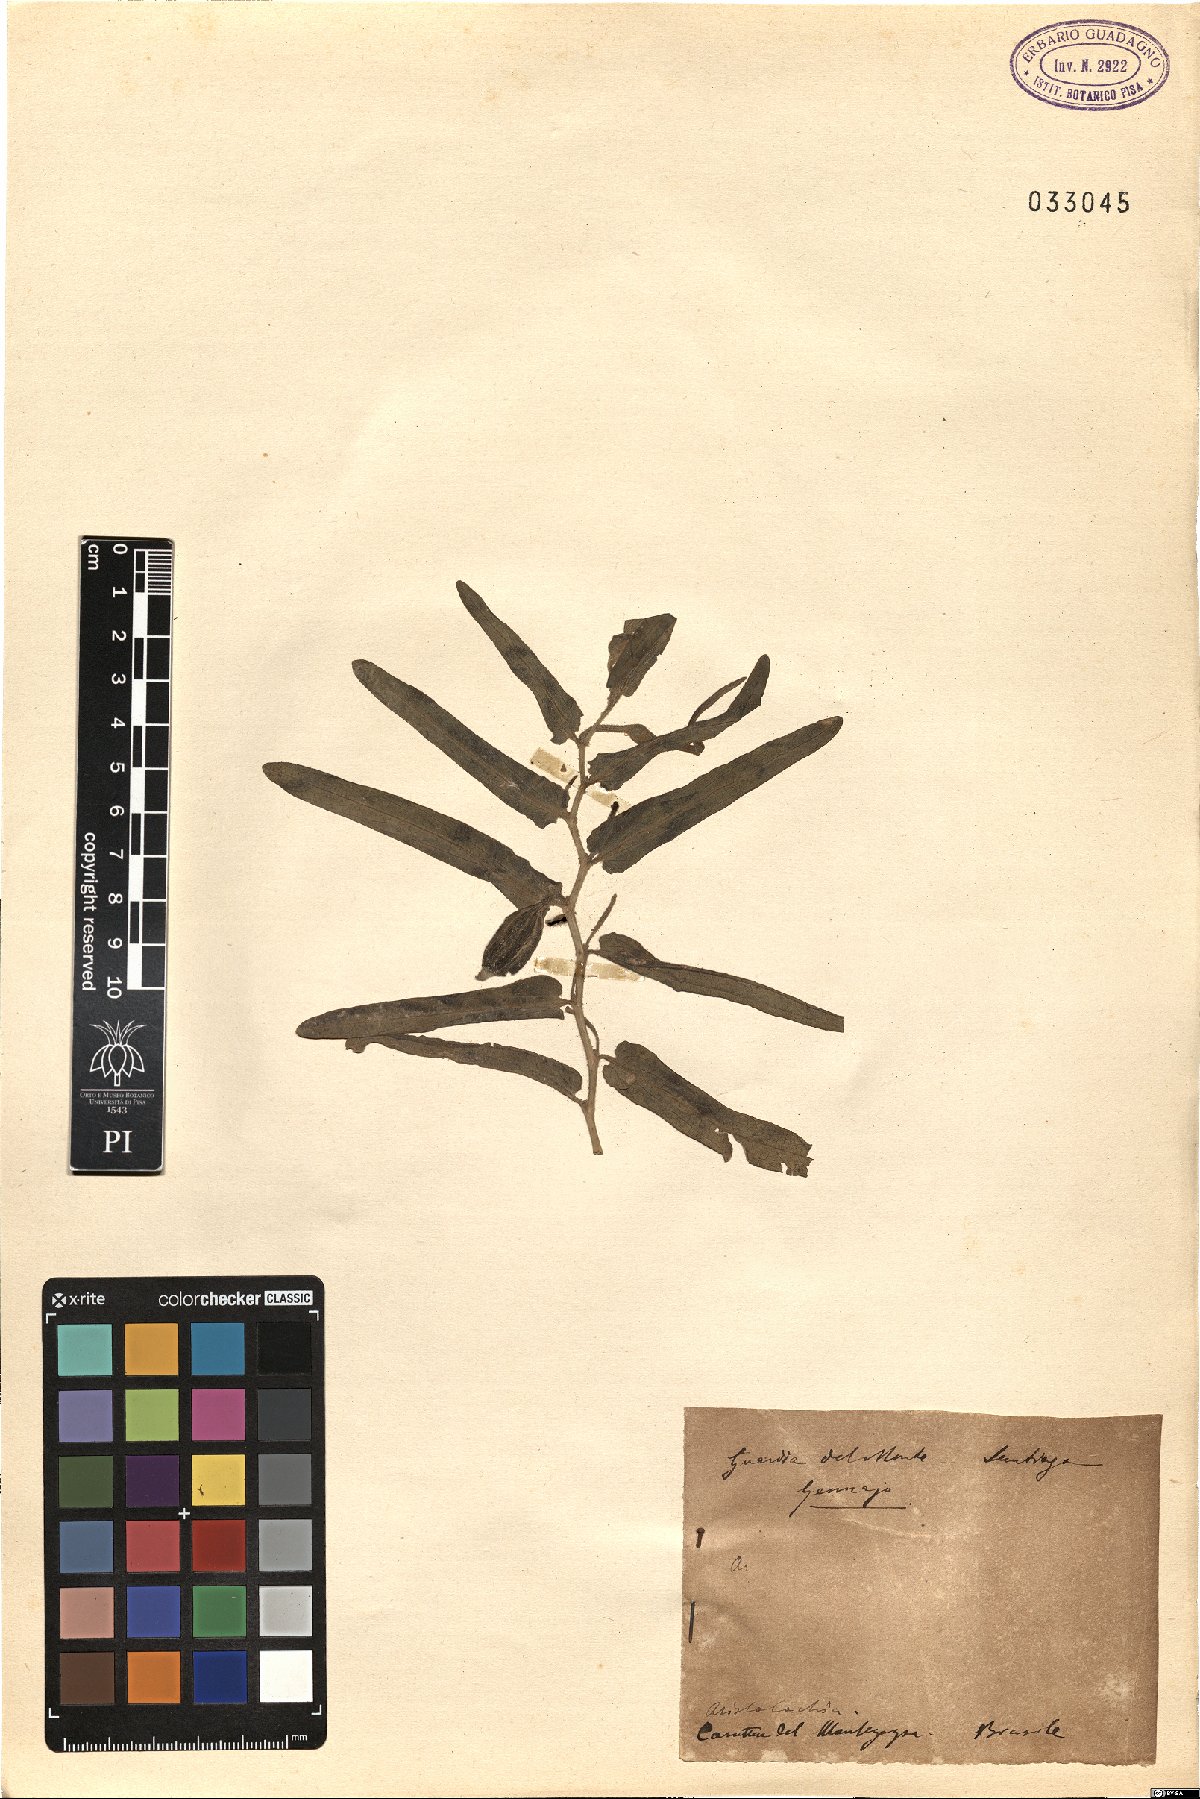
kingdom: Plantae
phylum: Tracheophyta
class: Magnoliopsida
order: Piperales
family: Aristolochiaceae
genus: Aristolochia
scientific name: Aristolochia
